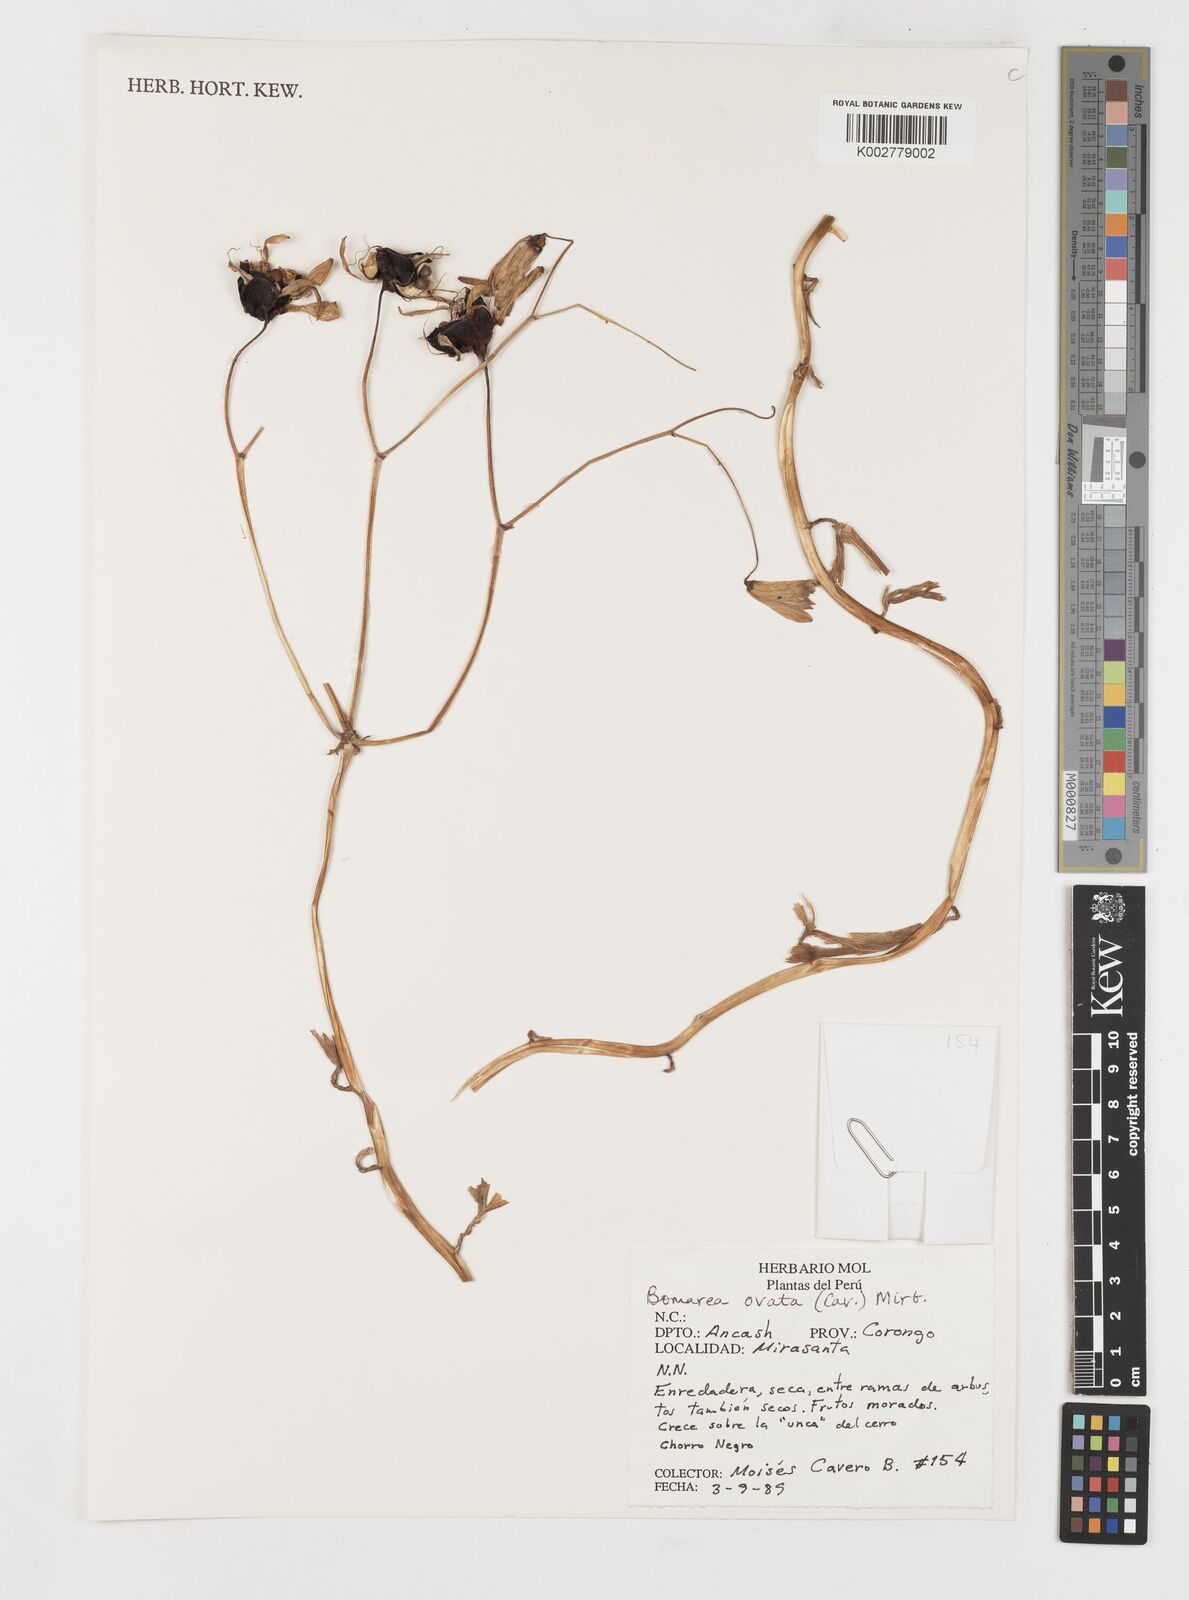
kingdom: Plantae
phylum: Tracheophyta
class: Liliopsida
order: Liliales
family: Alstroemeriaceae
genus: Bomarea
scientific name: Bomarea ovata
